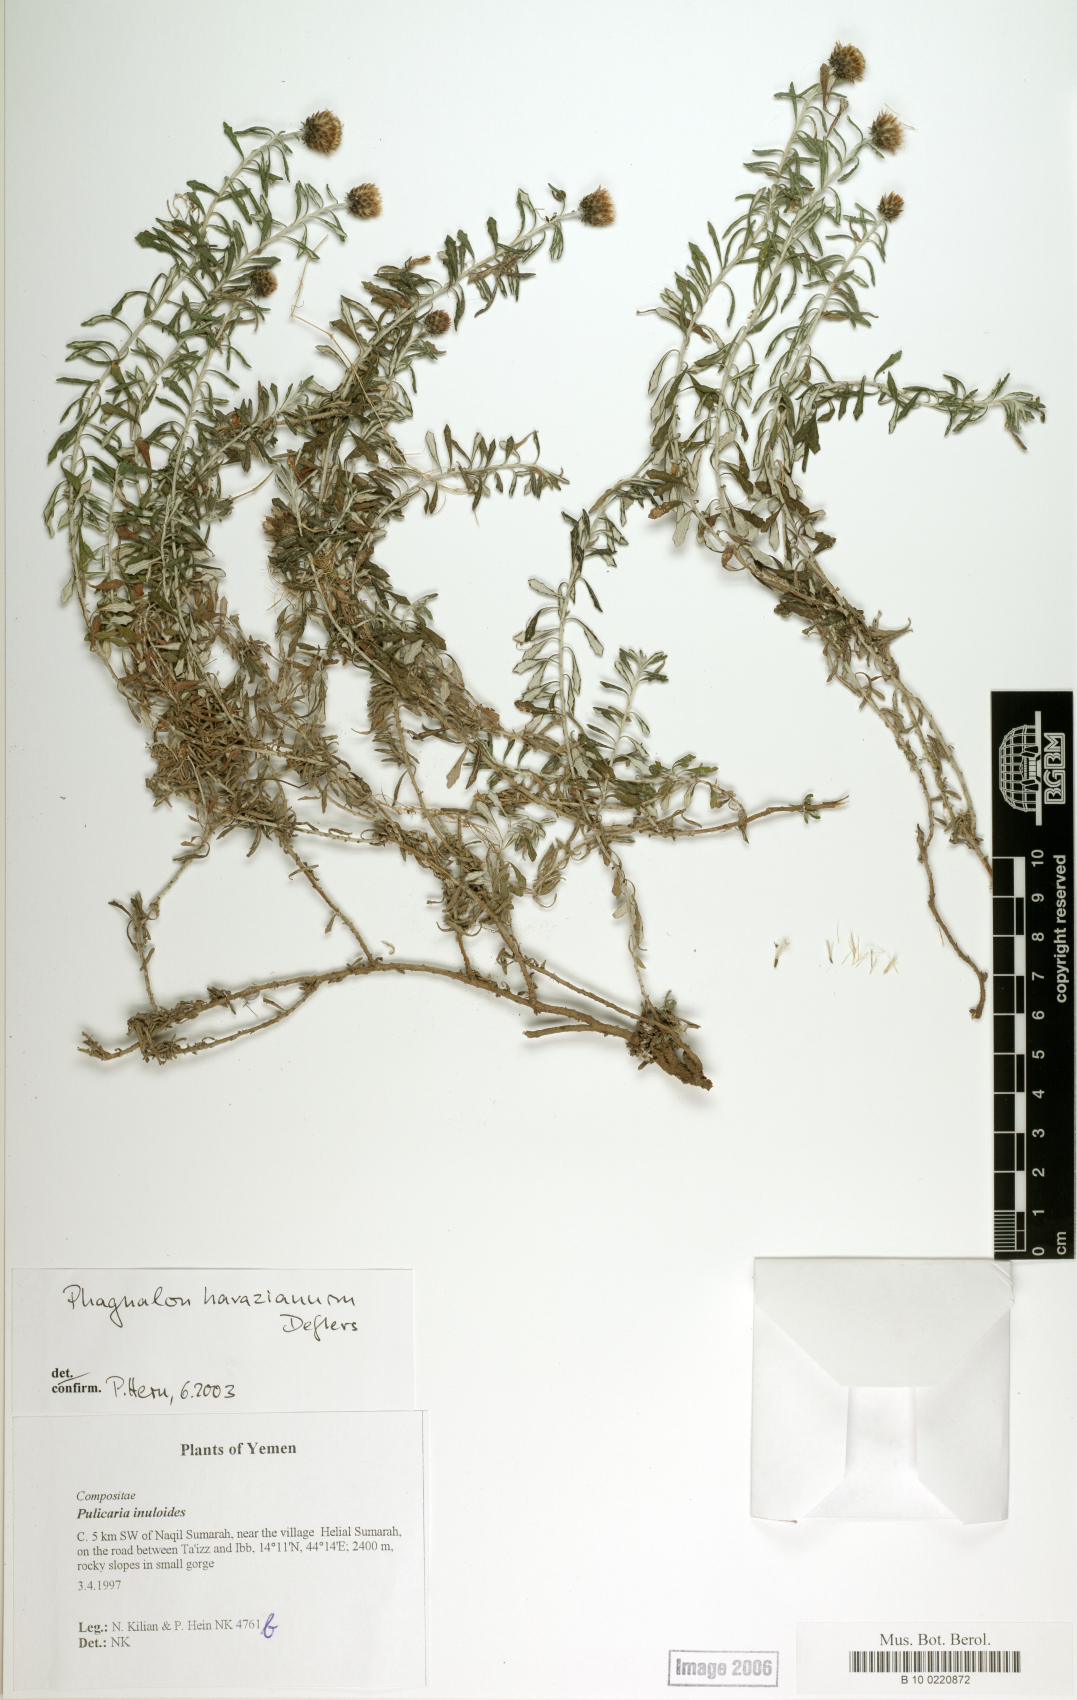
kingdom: Plantae
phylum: Tracheophyta
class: Magnoliopsida
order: Asterales
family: Asteraceae
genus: Phagnalon
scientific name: Phagnalon harazianum
